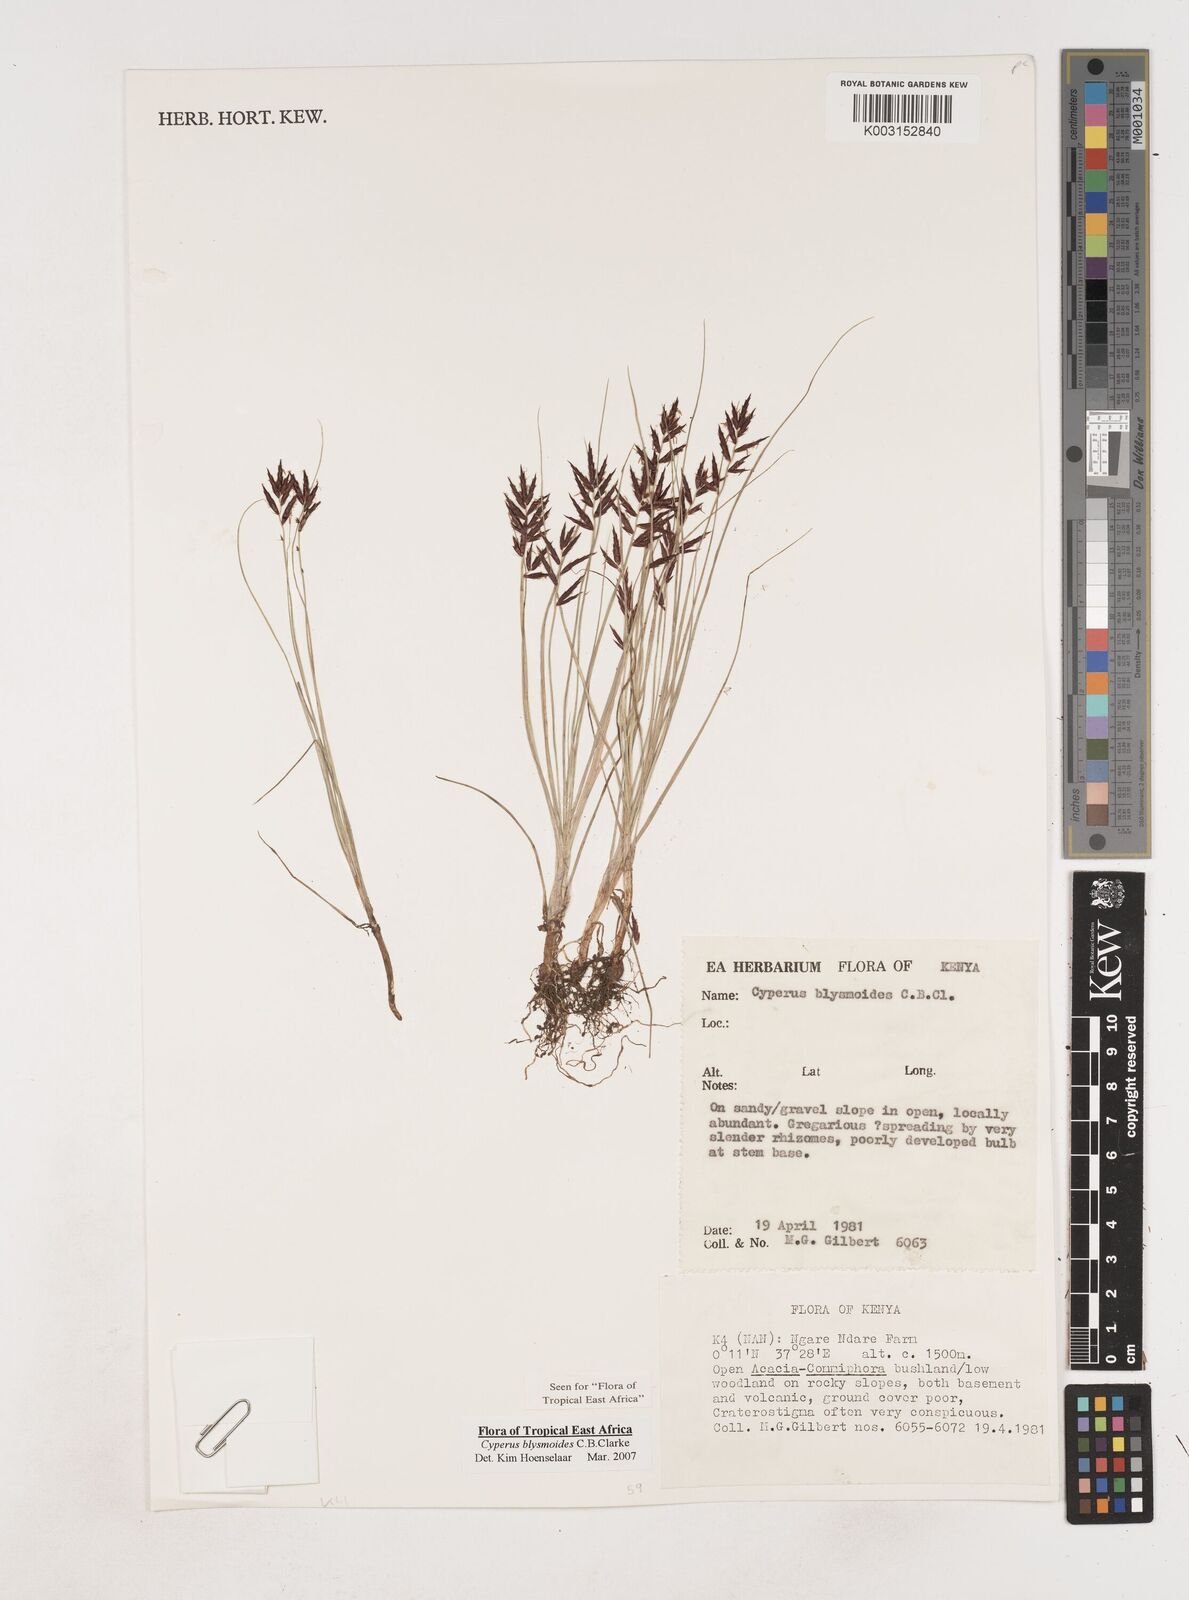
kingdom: Plantae
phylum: Tracheophyta
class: Liliopsida
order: Poales
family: Cyperaceae
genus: Cyperus
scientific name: Cyperus blysmoides
